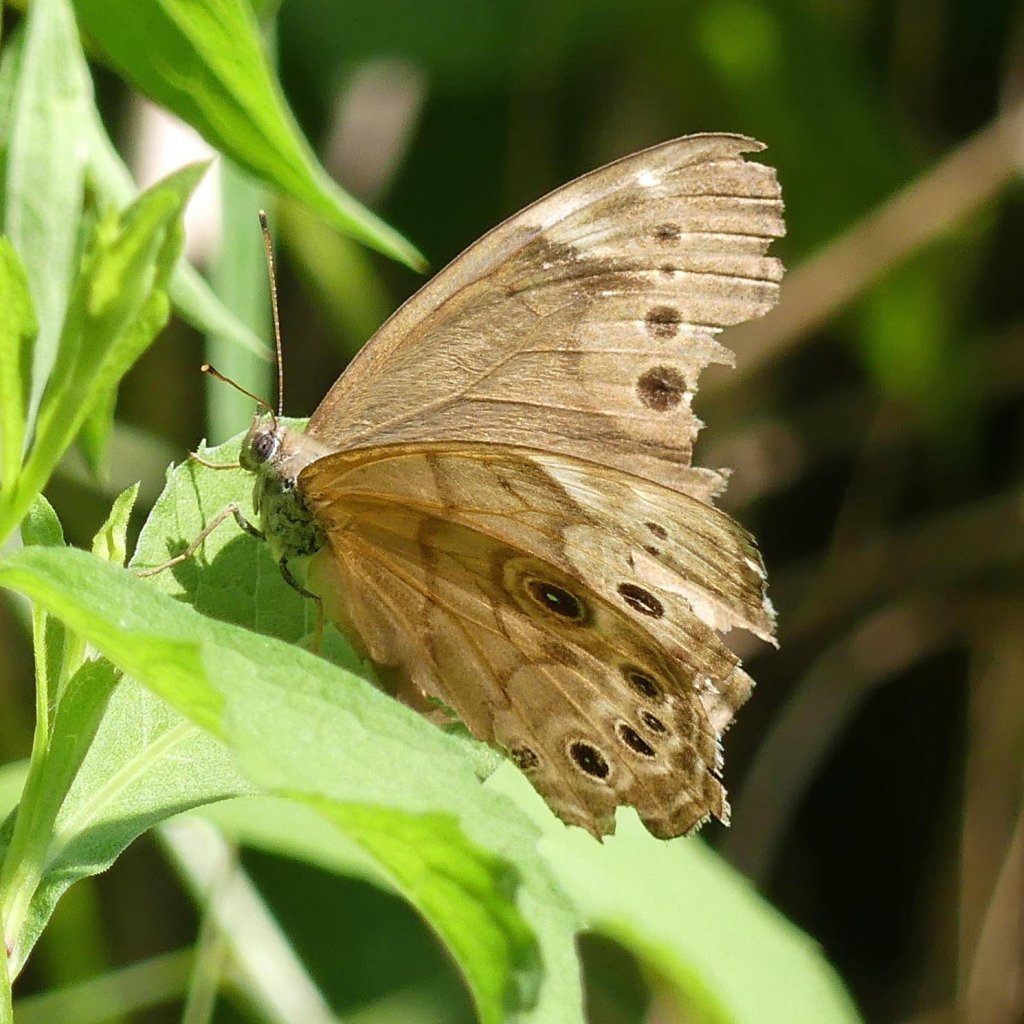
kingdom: Animalia
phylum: Arthropoda
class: Insecta
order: Lepidoptera
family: Nymphalidae
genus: Lethe
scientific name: Lethe anthedon
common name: Northern Pearly-Eye
